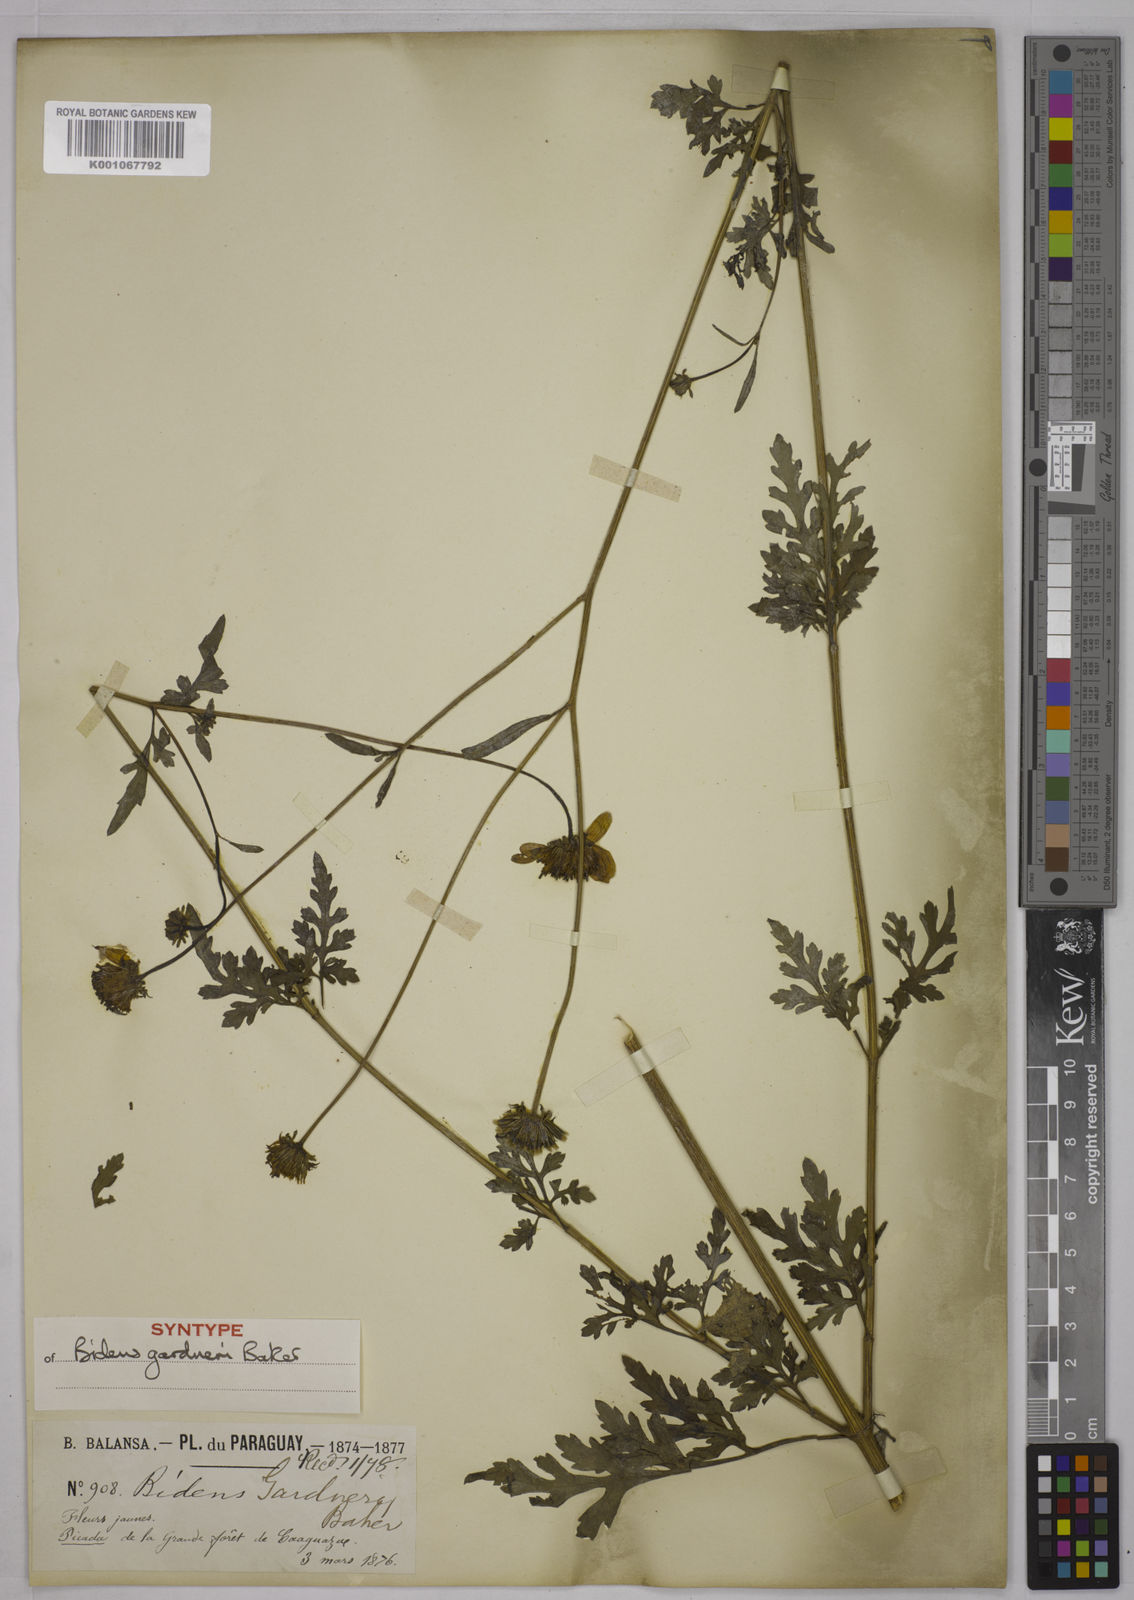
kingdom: Plantae
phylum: Tracheophyta
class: Magnoliopsida
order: Asterales
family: Asteraceae
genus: Bidens
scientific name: Bidens gardneri
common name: Ridge beggartick
